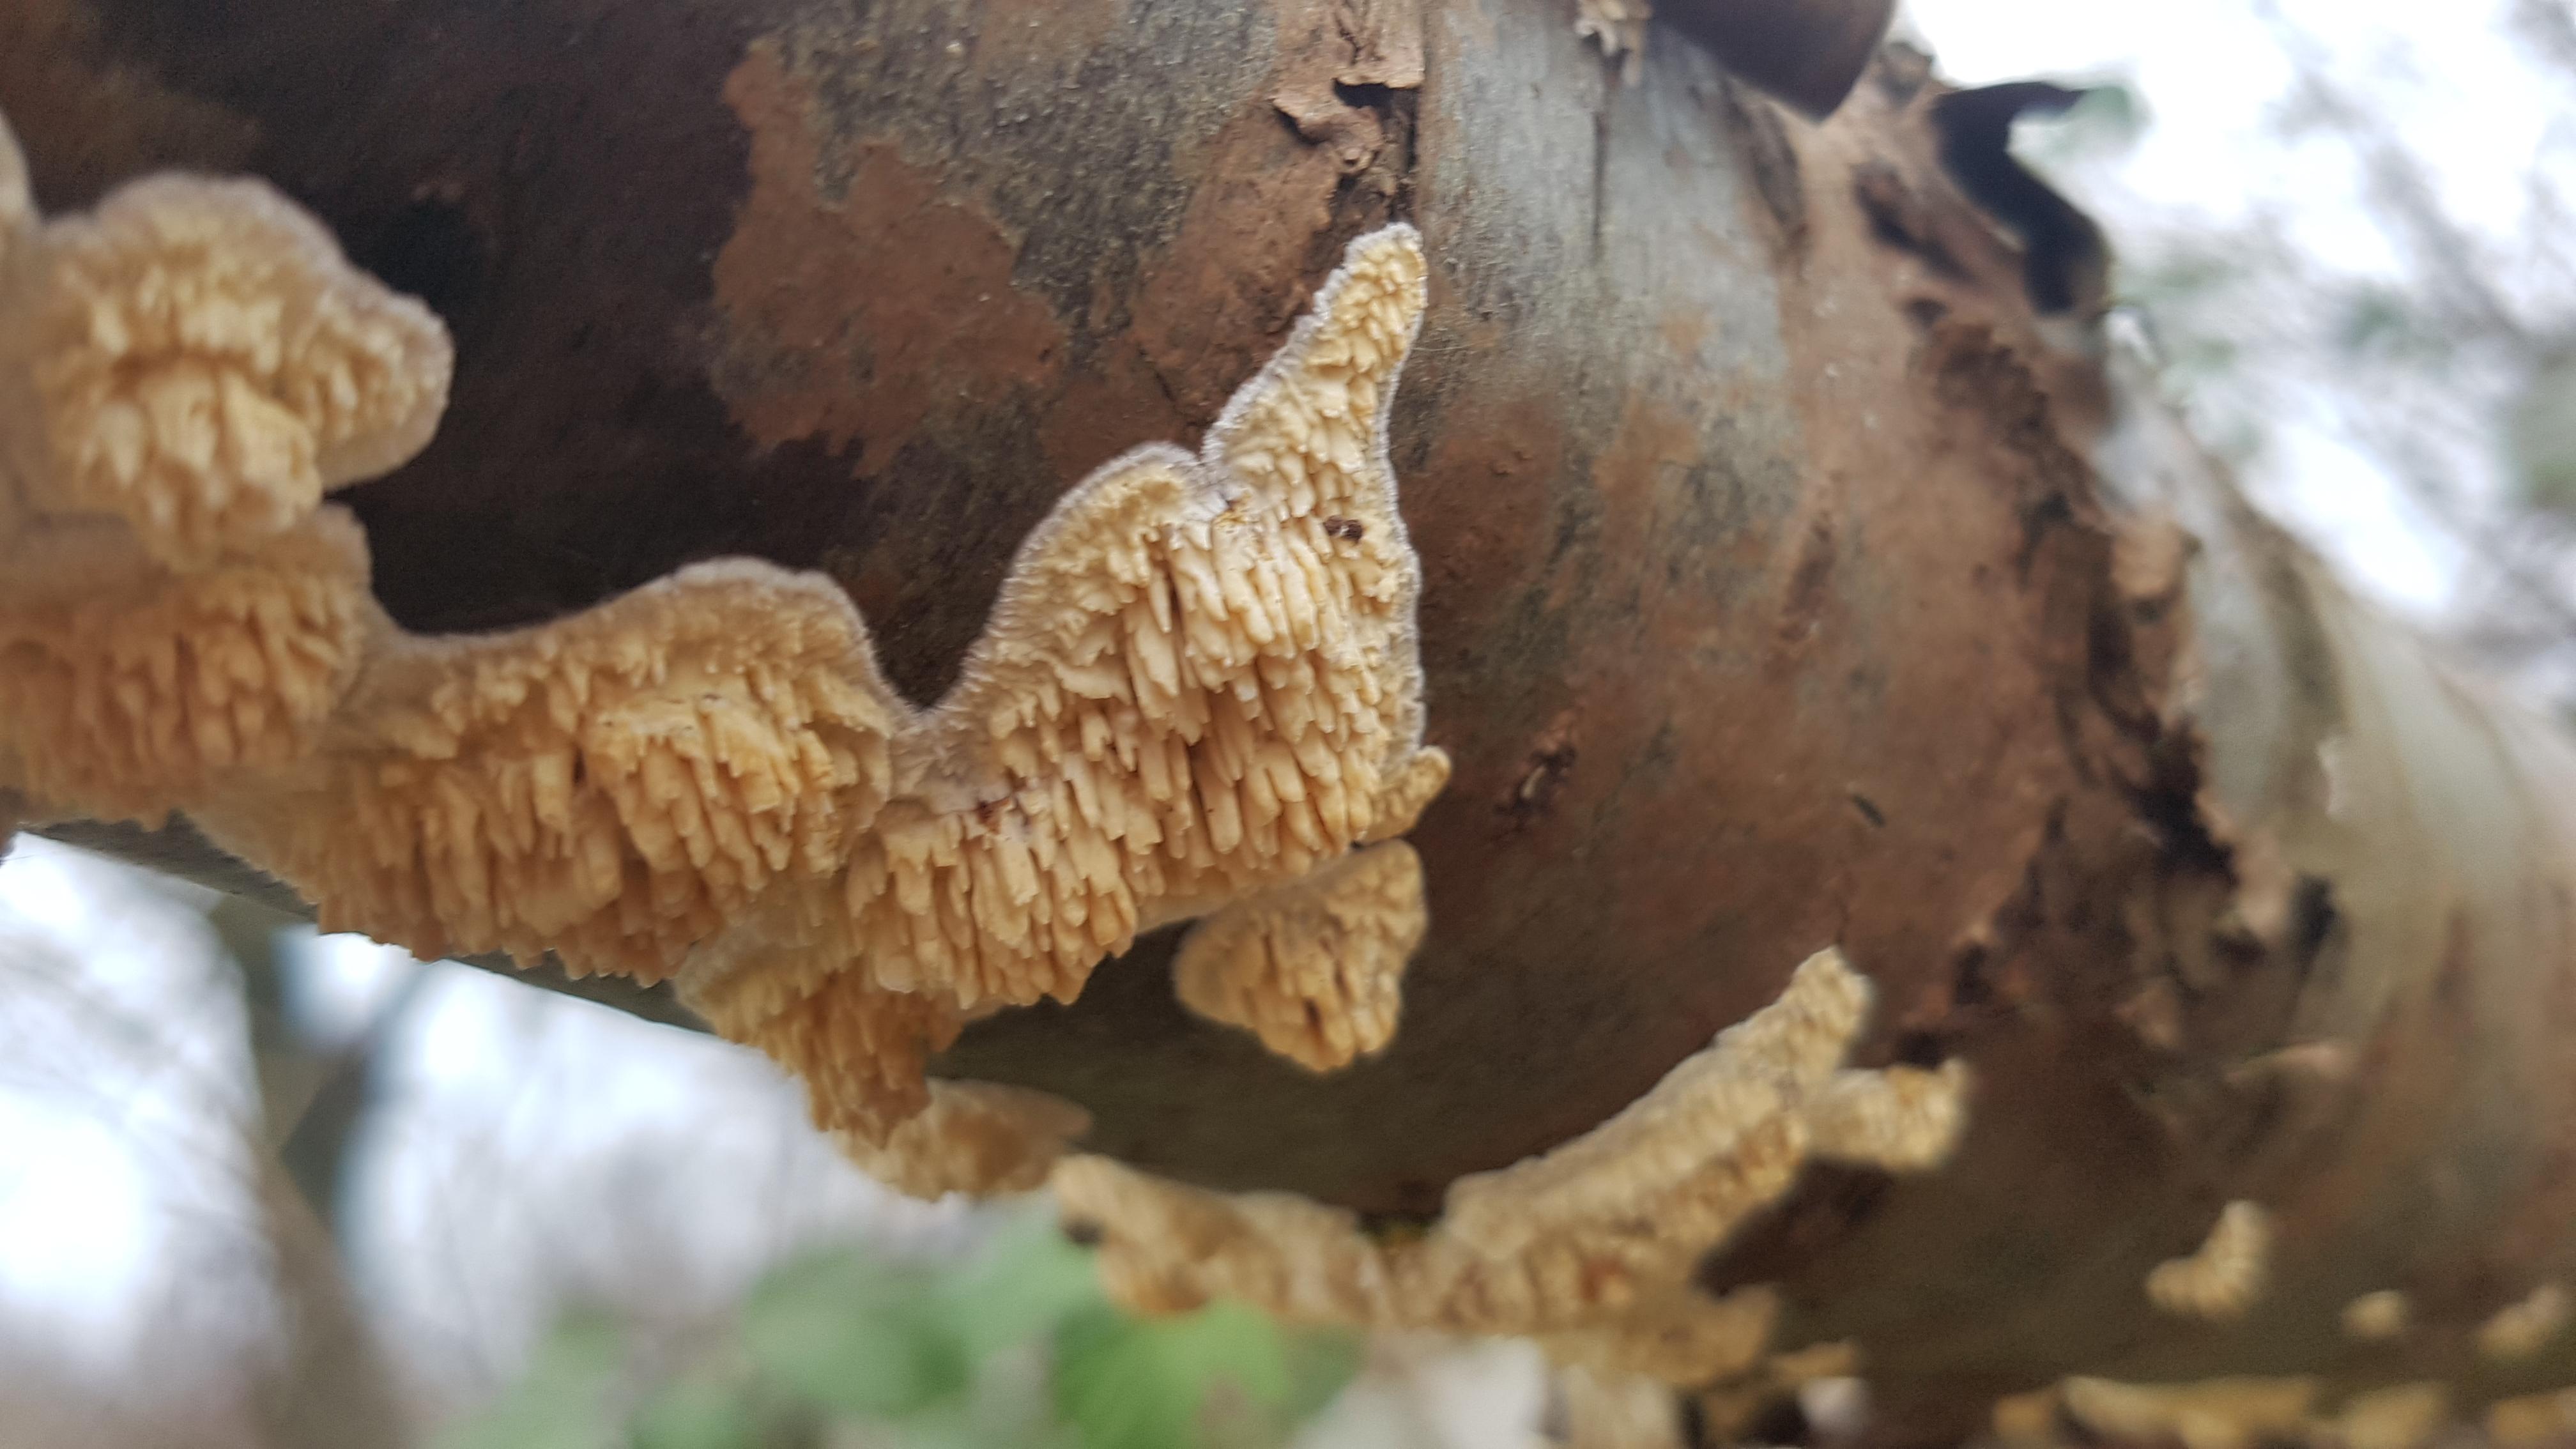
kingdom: Fungi
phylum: Basidiomycota
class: Agaricomycetes
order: Hymenochaetales
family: Schizoporaceae
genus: Xylodon
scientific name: Xylodon radula
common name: grovtandet kalkskind
